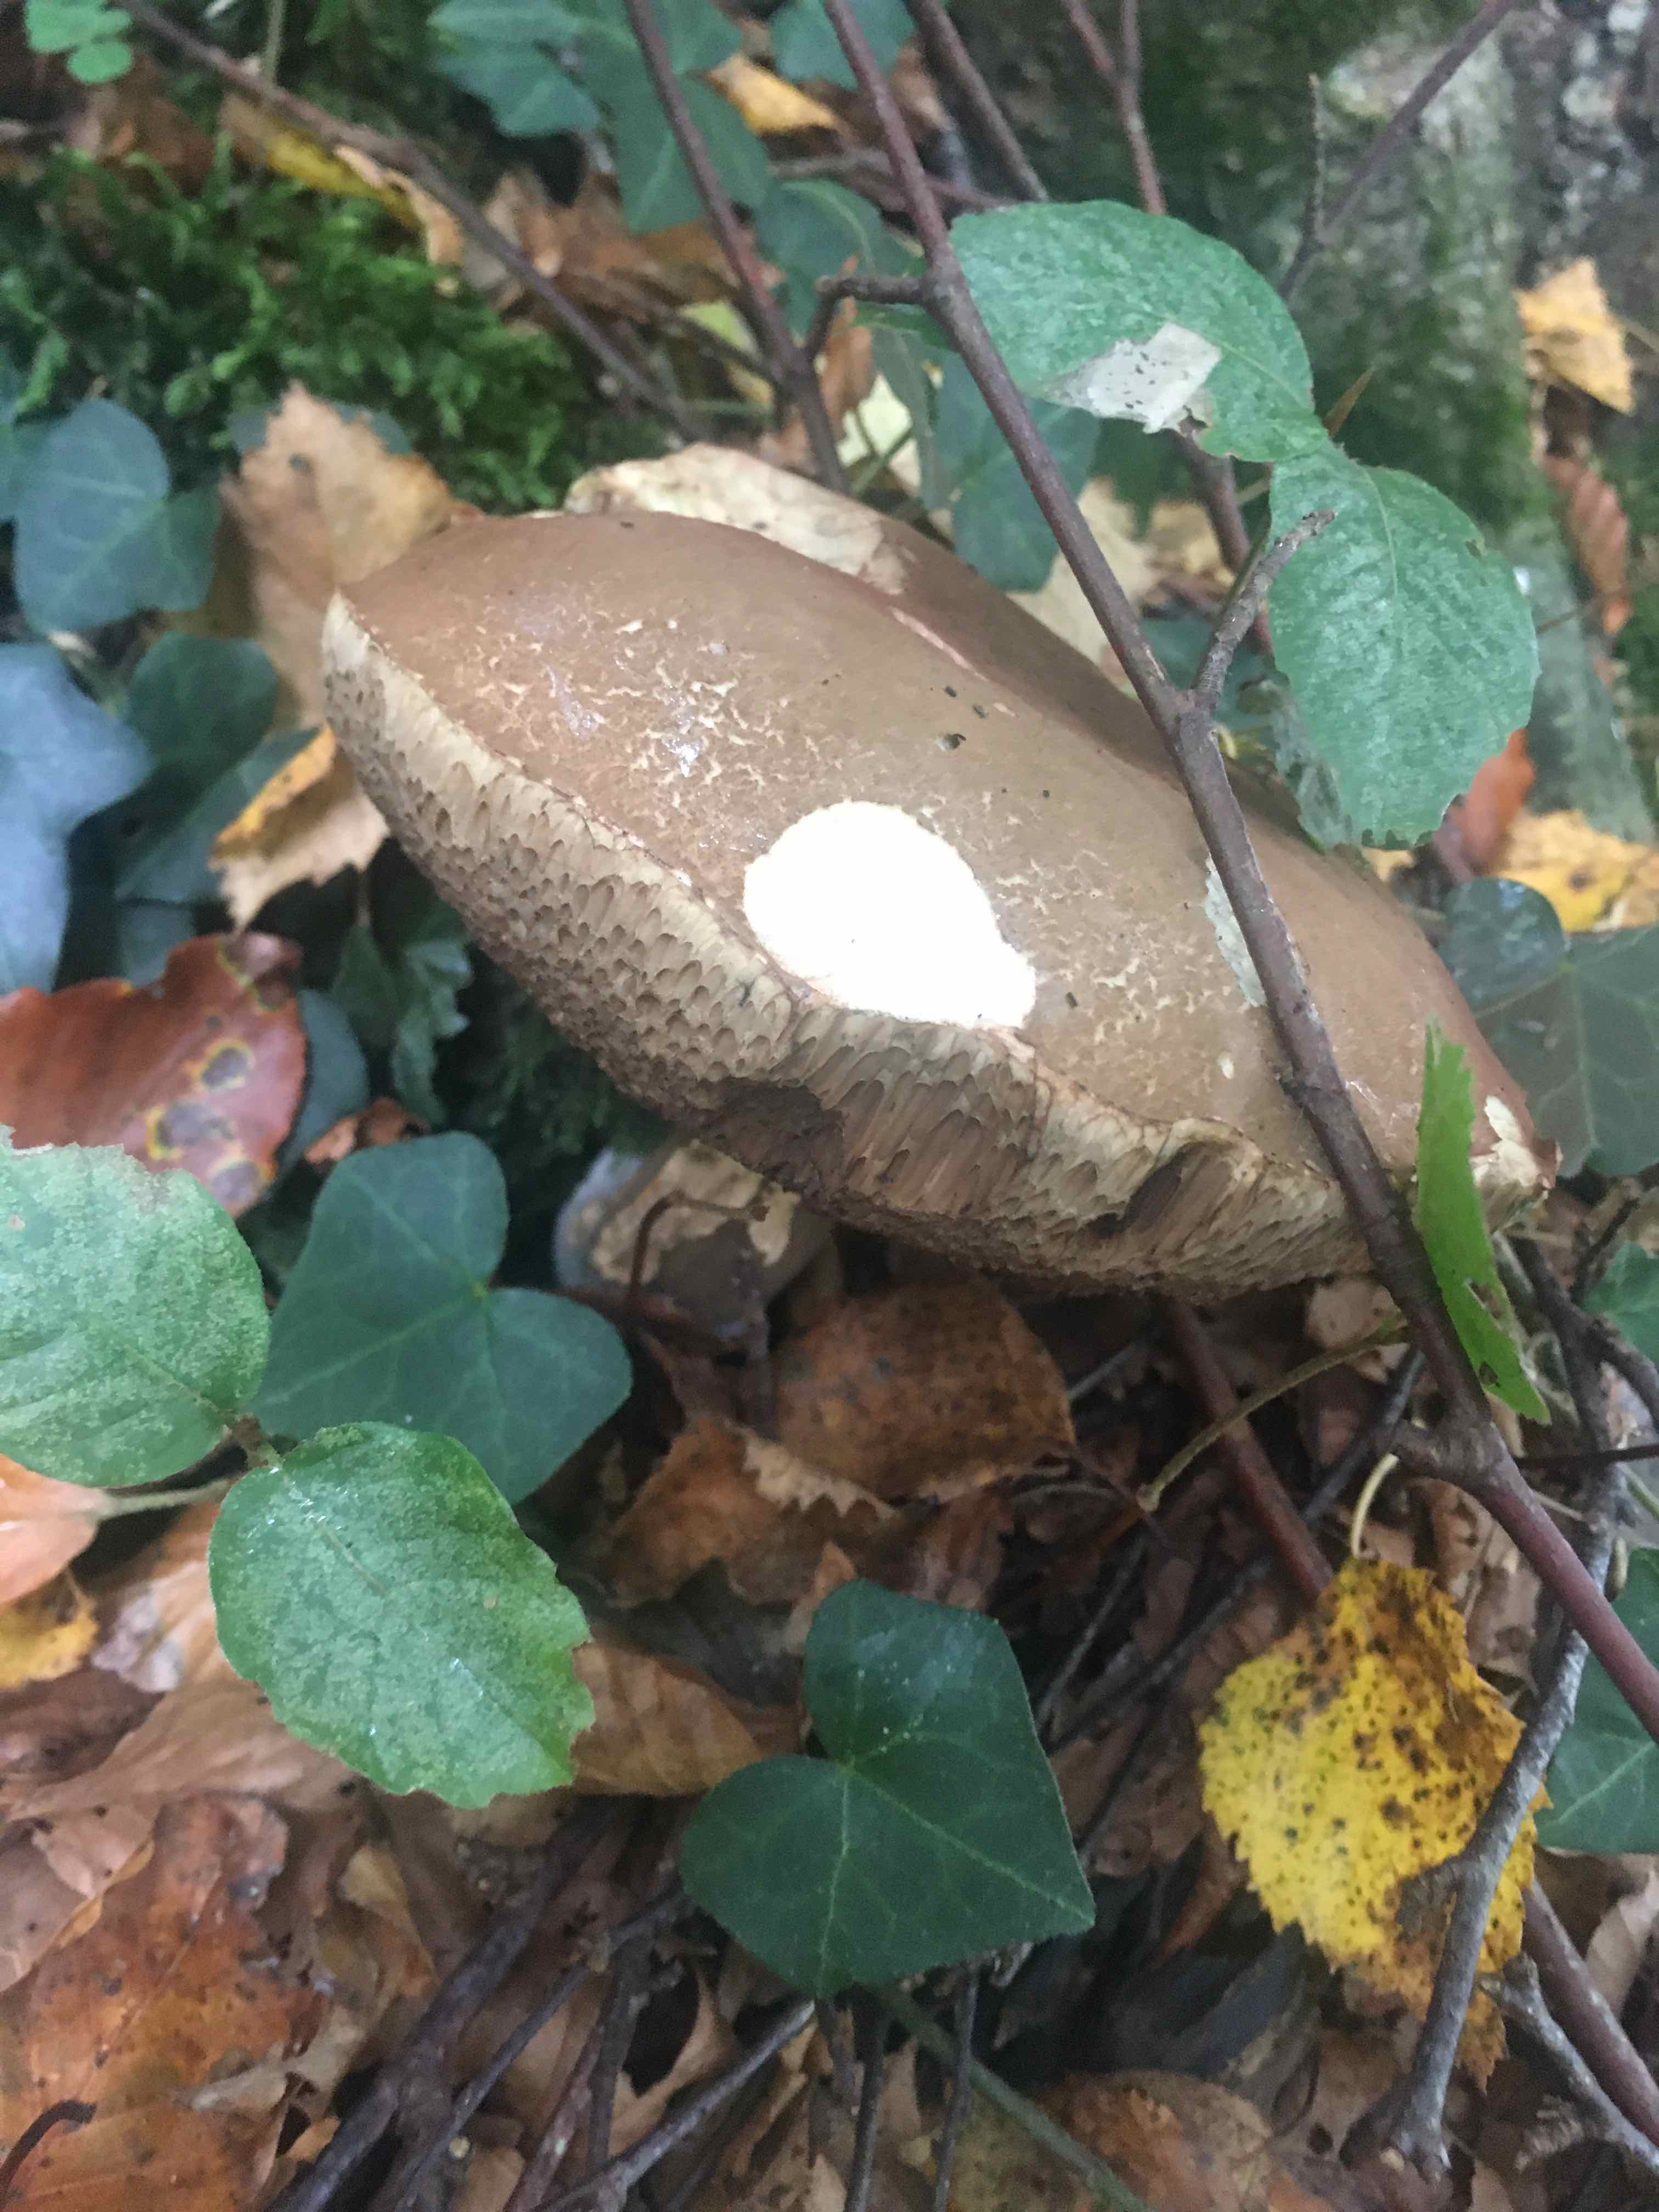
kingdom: Fungi
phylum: Basidiomycota
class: Agaricomycetes
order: Boletales
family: Boletaceae
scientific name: Boletaceae
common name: rørhatfamilien
